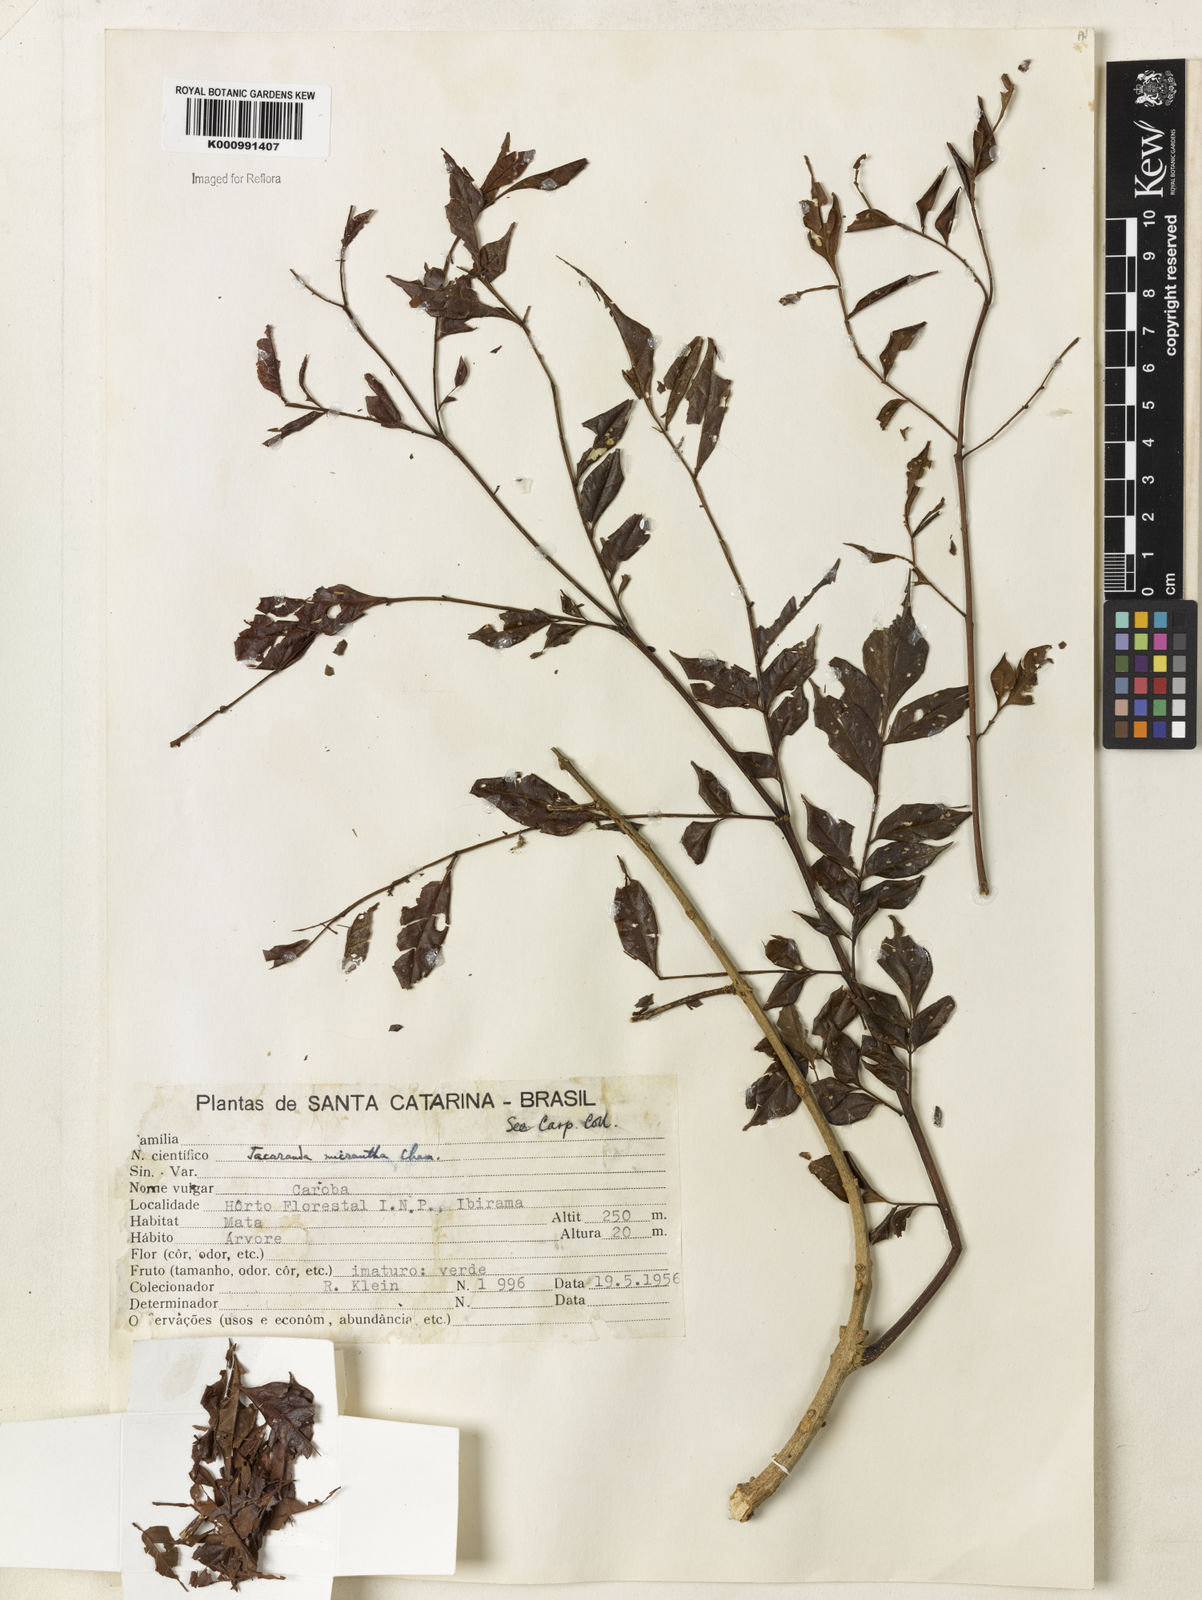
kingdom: Plantae
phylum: Tracheophyta
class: Magnoliopsida
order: Lamiales
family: Bignoniaceae
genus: Jacaranda
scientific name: Jacaranda micrantha
